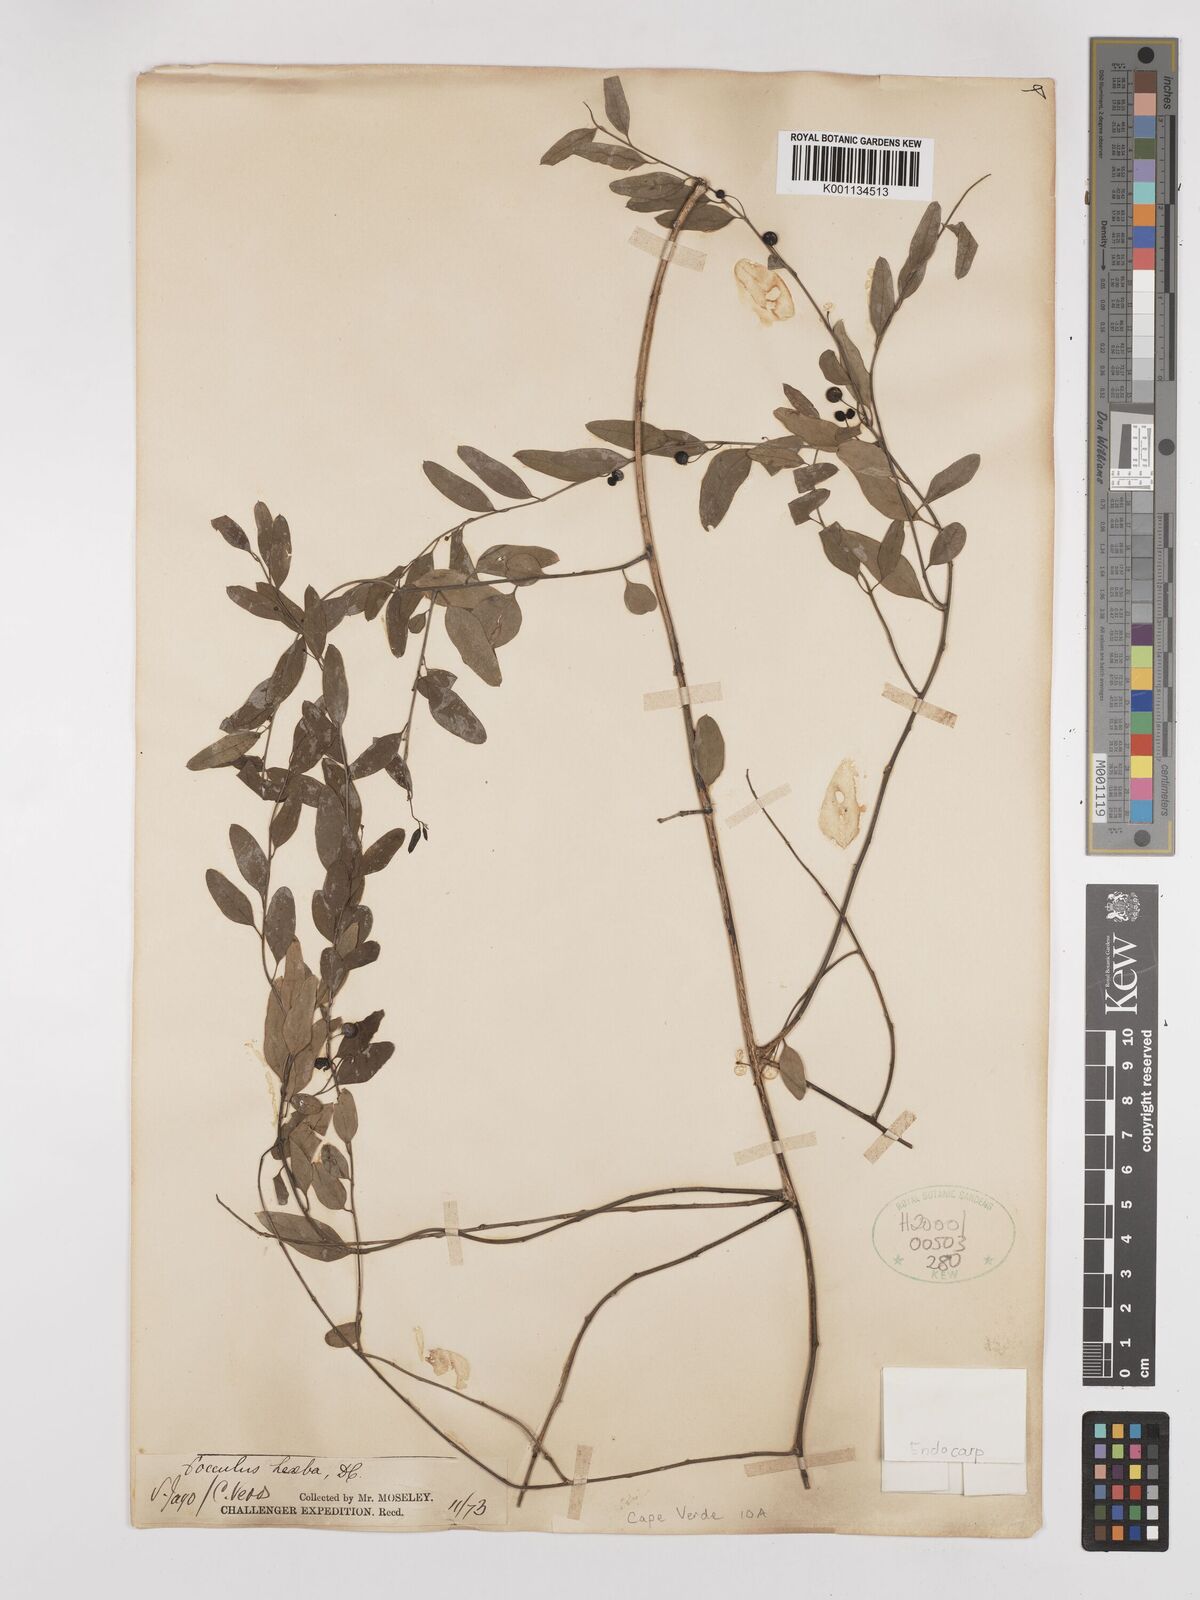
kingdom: Plantae
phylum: Tracheophyta
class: Magnoliopsida
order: Ranunculales
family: Menispermaceae
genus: Cocculus
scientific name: Cocculus pendulus
